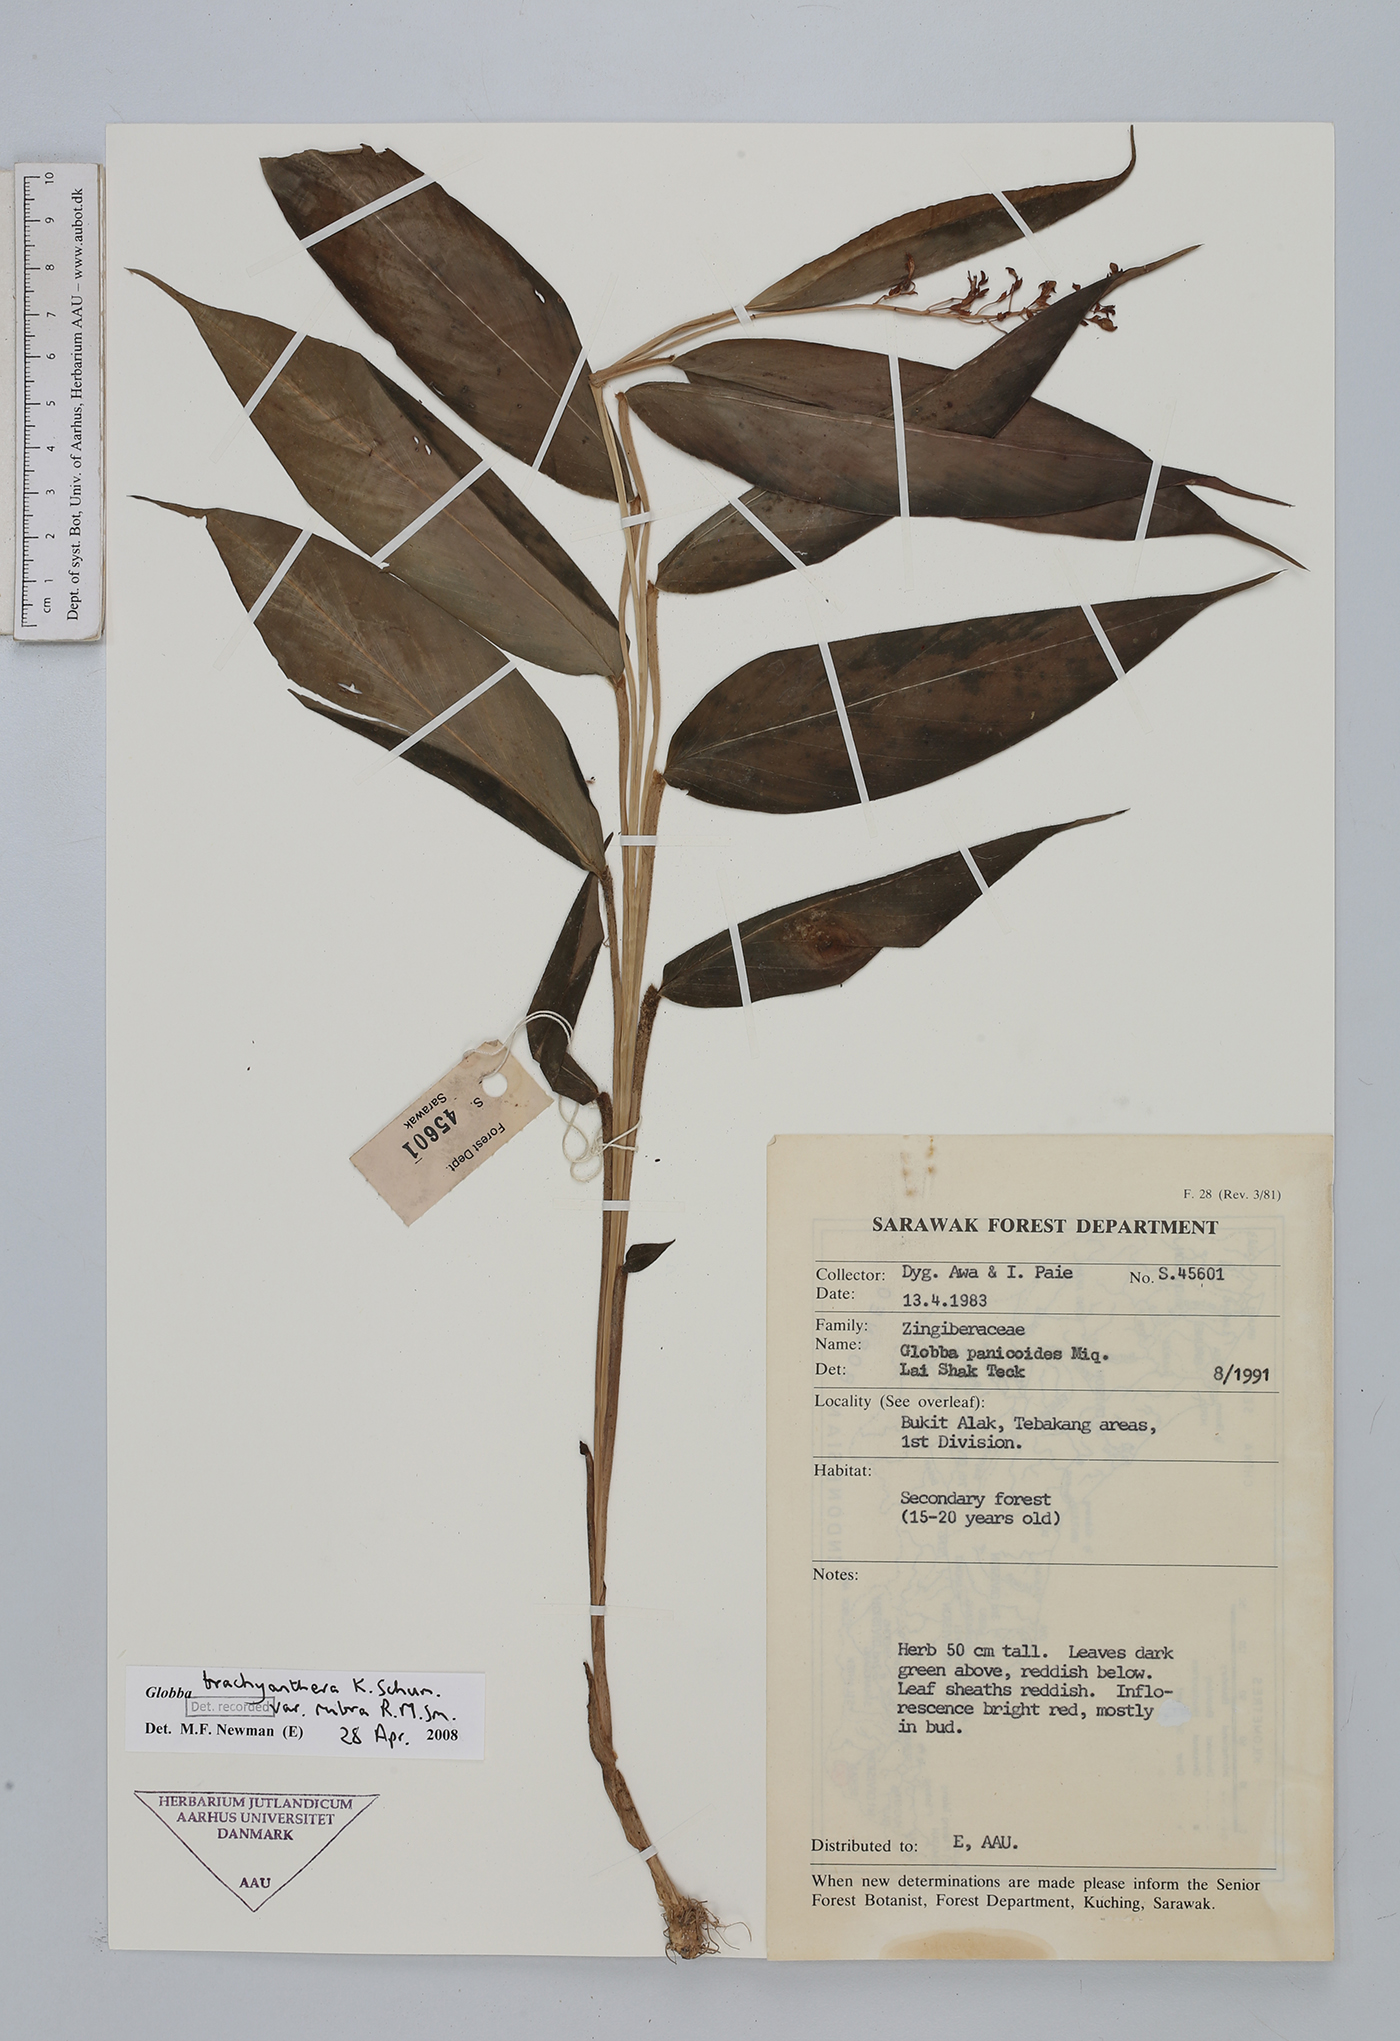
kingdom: Plantae
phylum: Tracheophyta
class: Liliopsida
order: Zingiberales
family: Zingiberaceae
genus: Globba
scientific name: Globba brachyanthera
